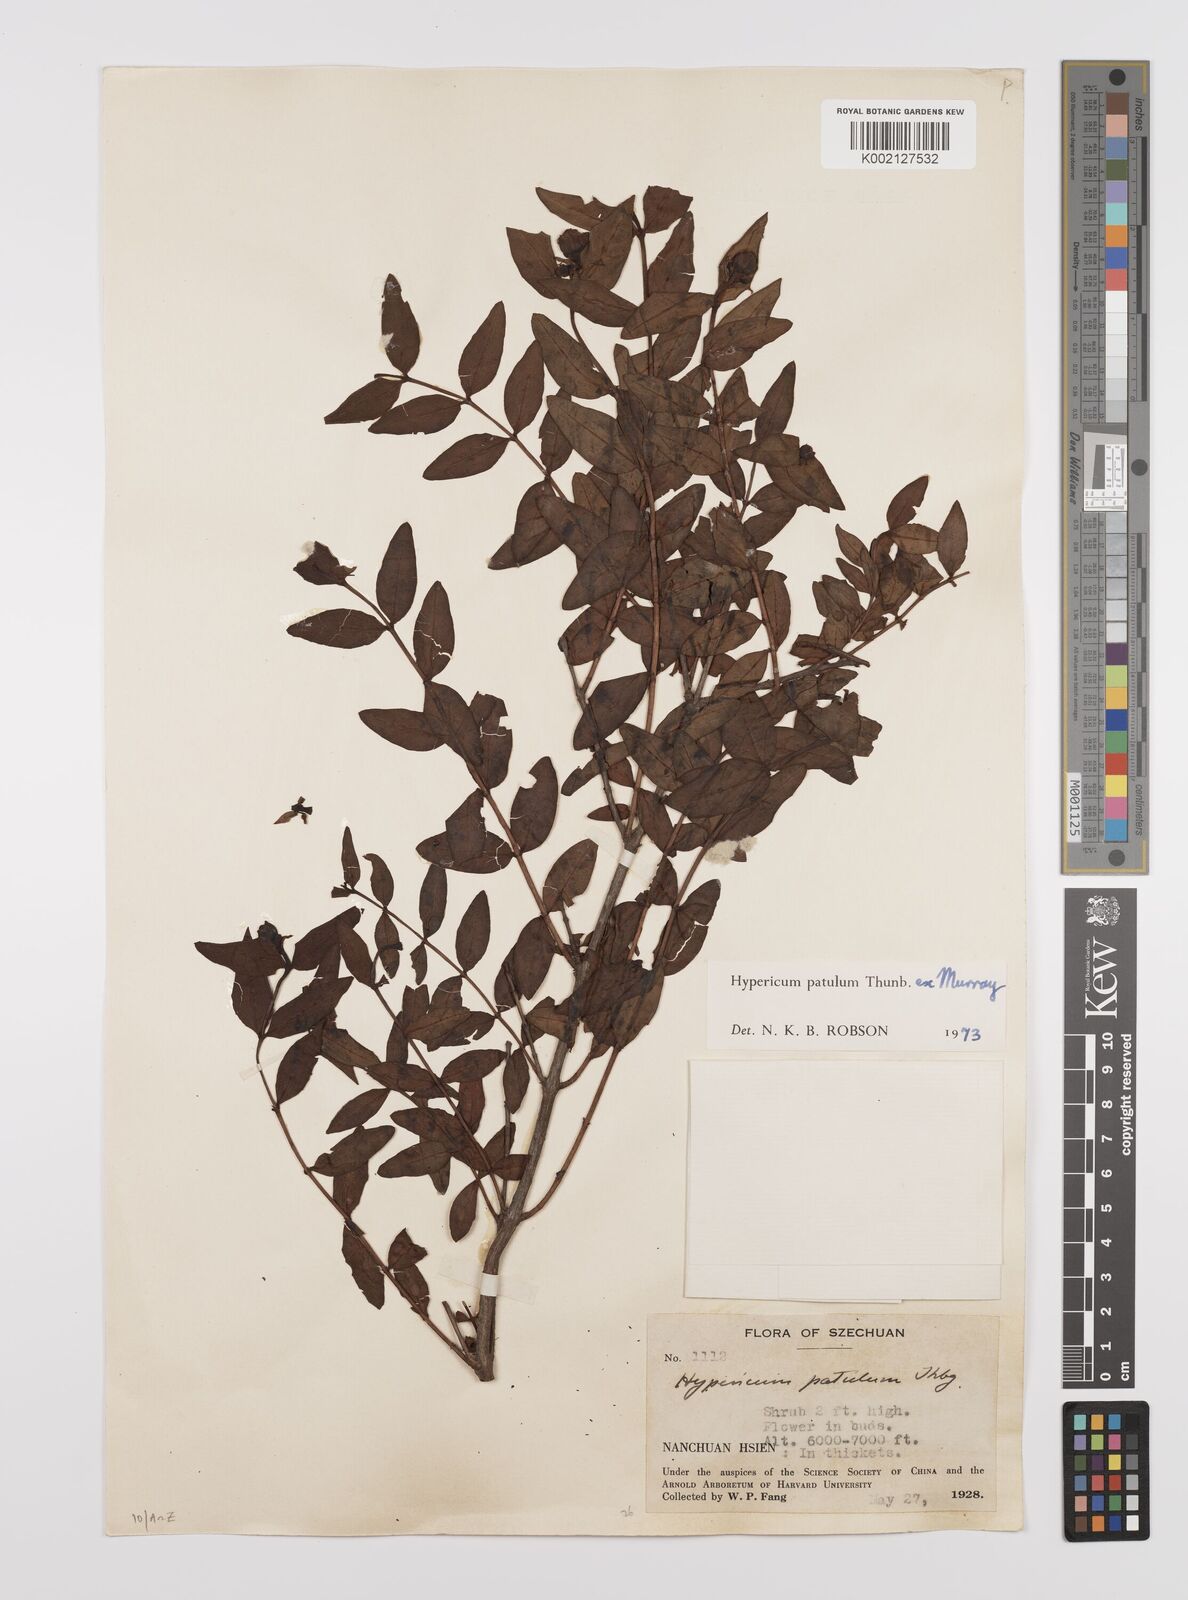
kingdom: Plantae
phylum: Tracheophyta
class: Magnoliopsida
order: Malpighiales
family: Hypericaceae
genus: Hypericum
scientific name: Hypericum patulum
